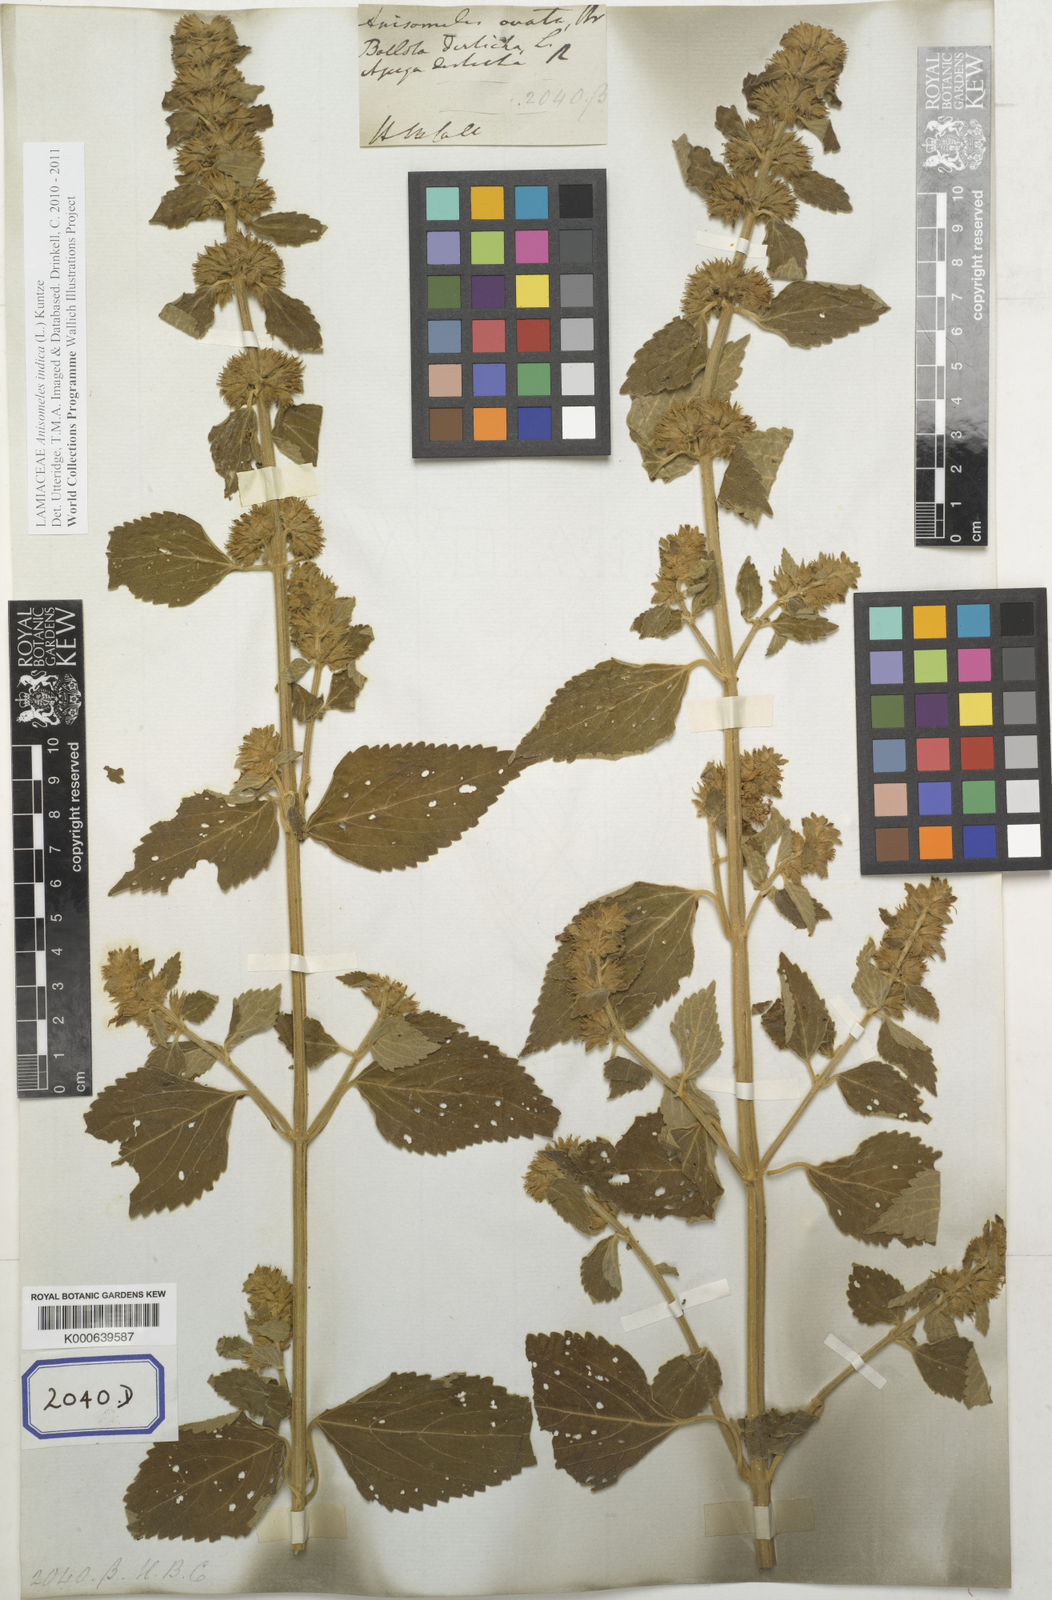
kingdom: Plantae
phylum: Tracheophyta
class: Magnoliopsida
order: Lamiales
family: Lamiaceae
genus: Anisomeles
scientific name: Anisomeles indica
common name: Catmint
